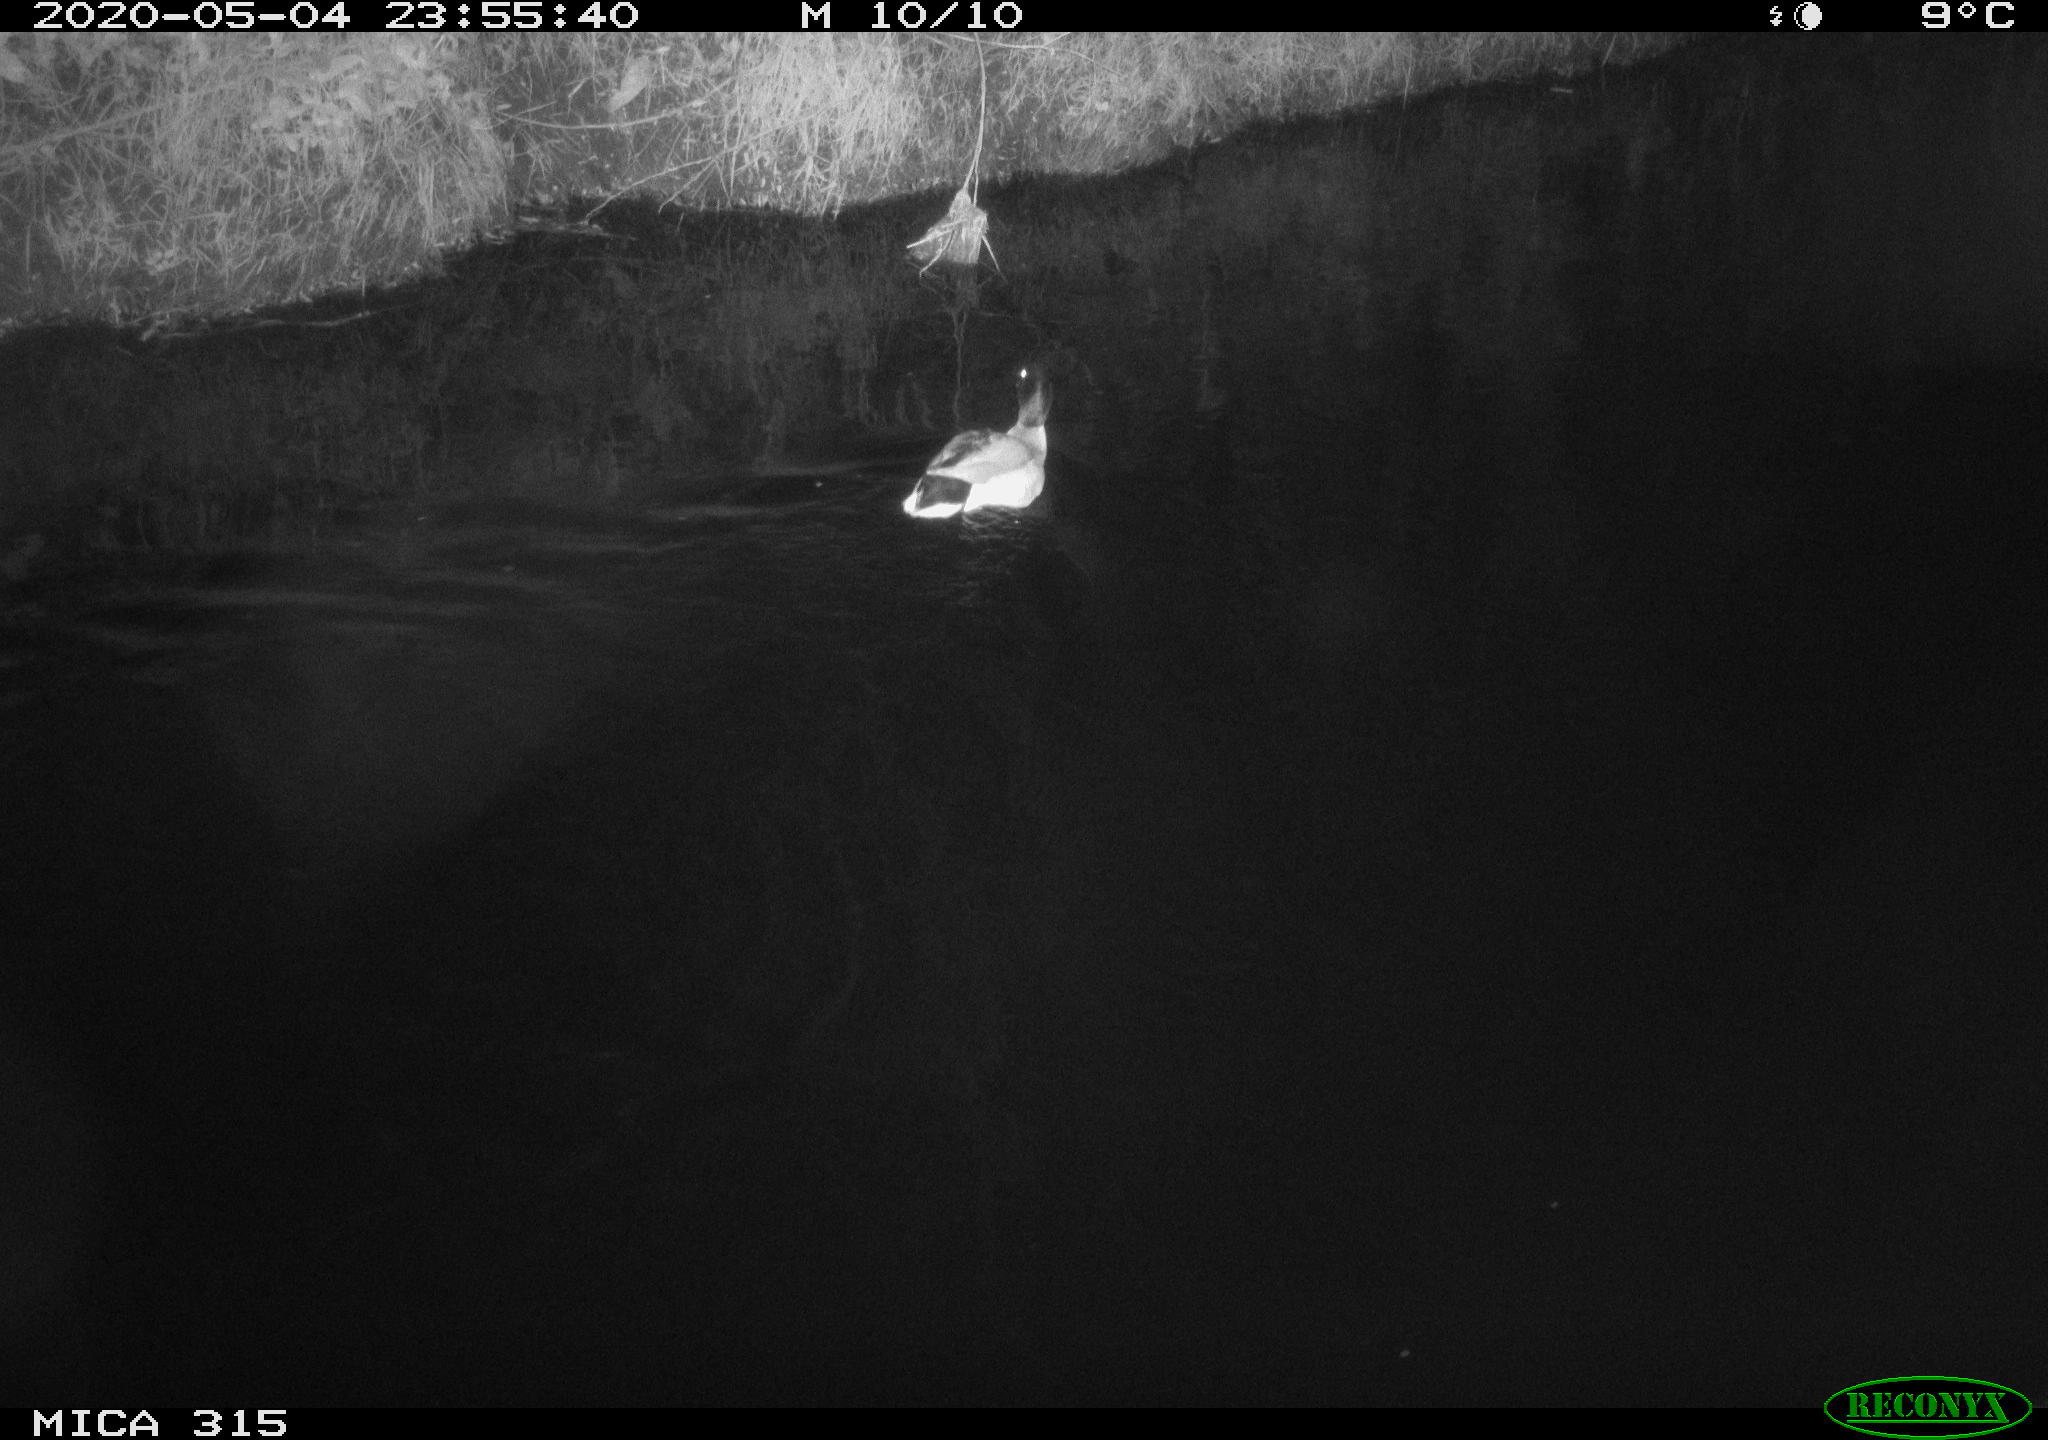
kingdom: Animalia
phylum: Chordata
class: Aves
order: Anseriformes
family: Anatidae
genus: Anas
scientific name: Anas platyrhynchos
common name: Mallard
